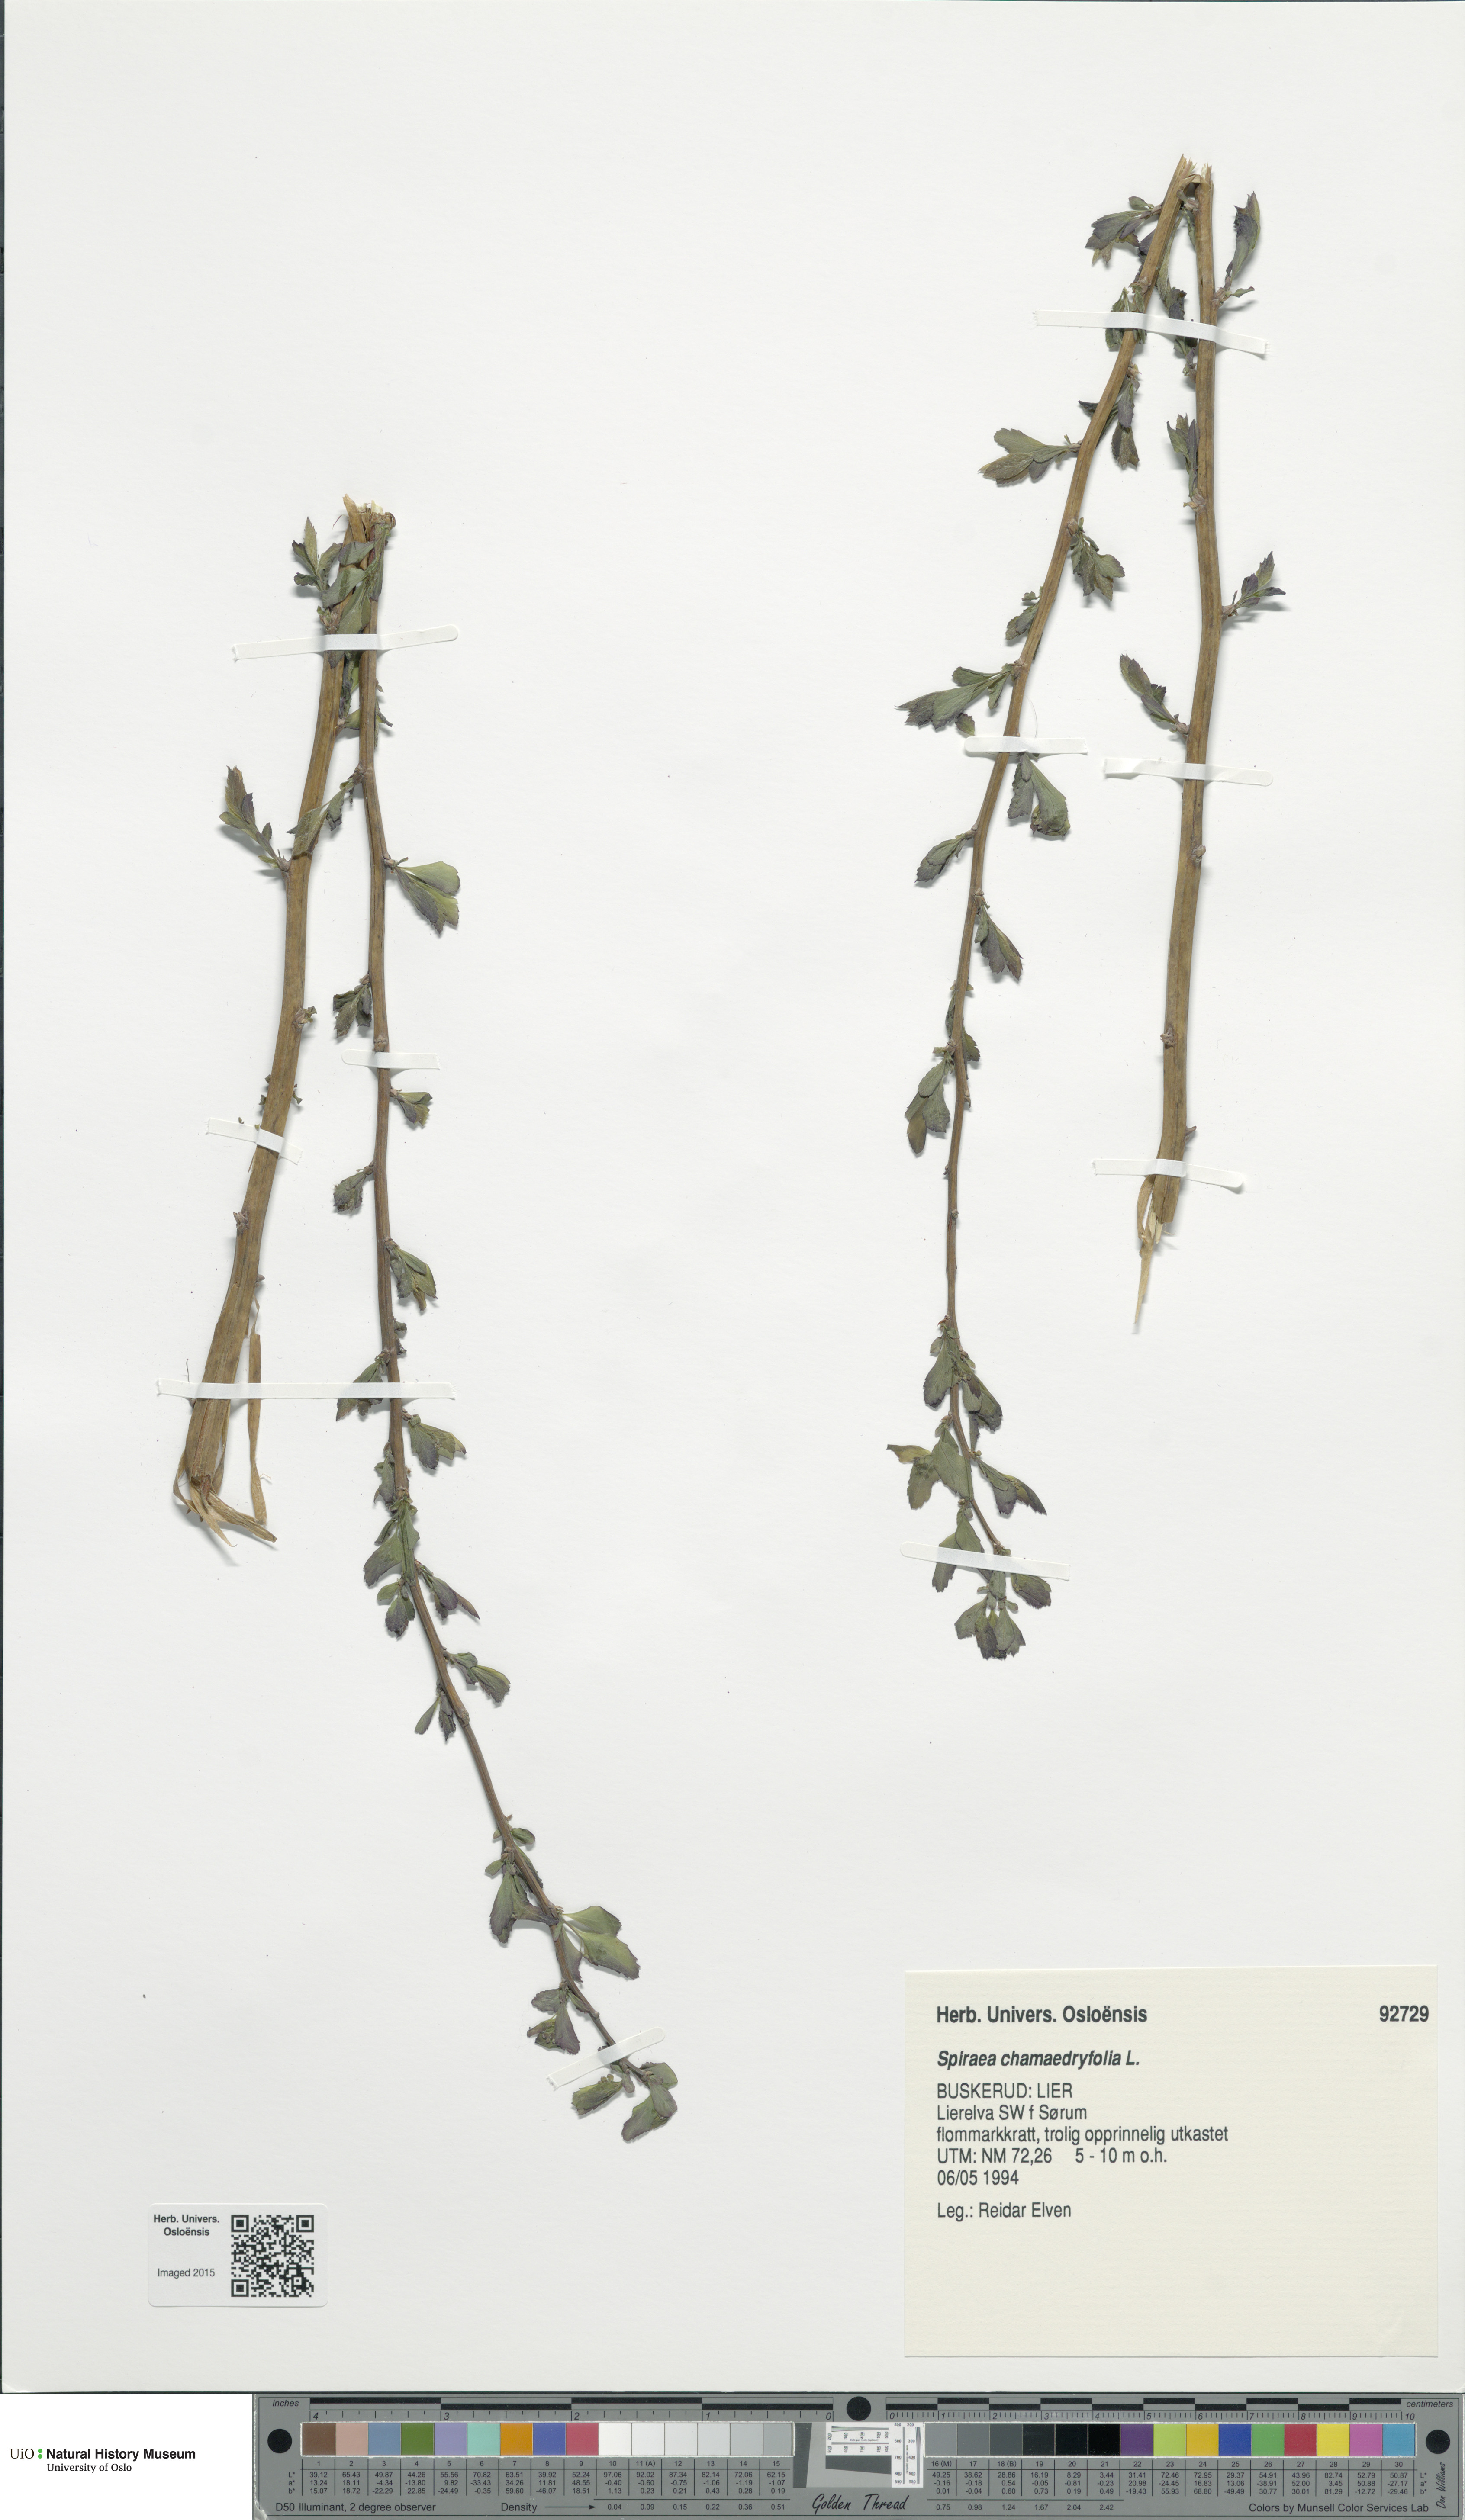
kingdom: Plantae
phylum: Tracheophyta
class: Magnoliopsida
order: Rosales
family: Rosaceae
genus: Spiraea
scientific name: Spiraea chamaedryfolia
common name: Elm-leaved spiraea
